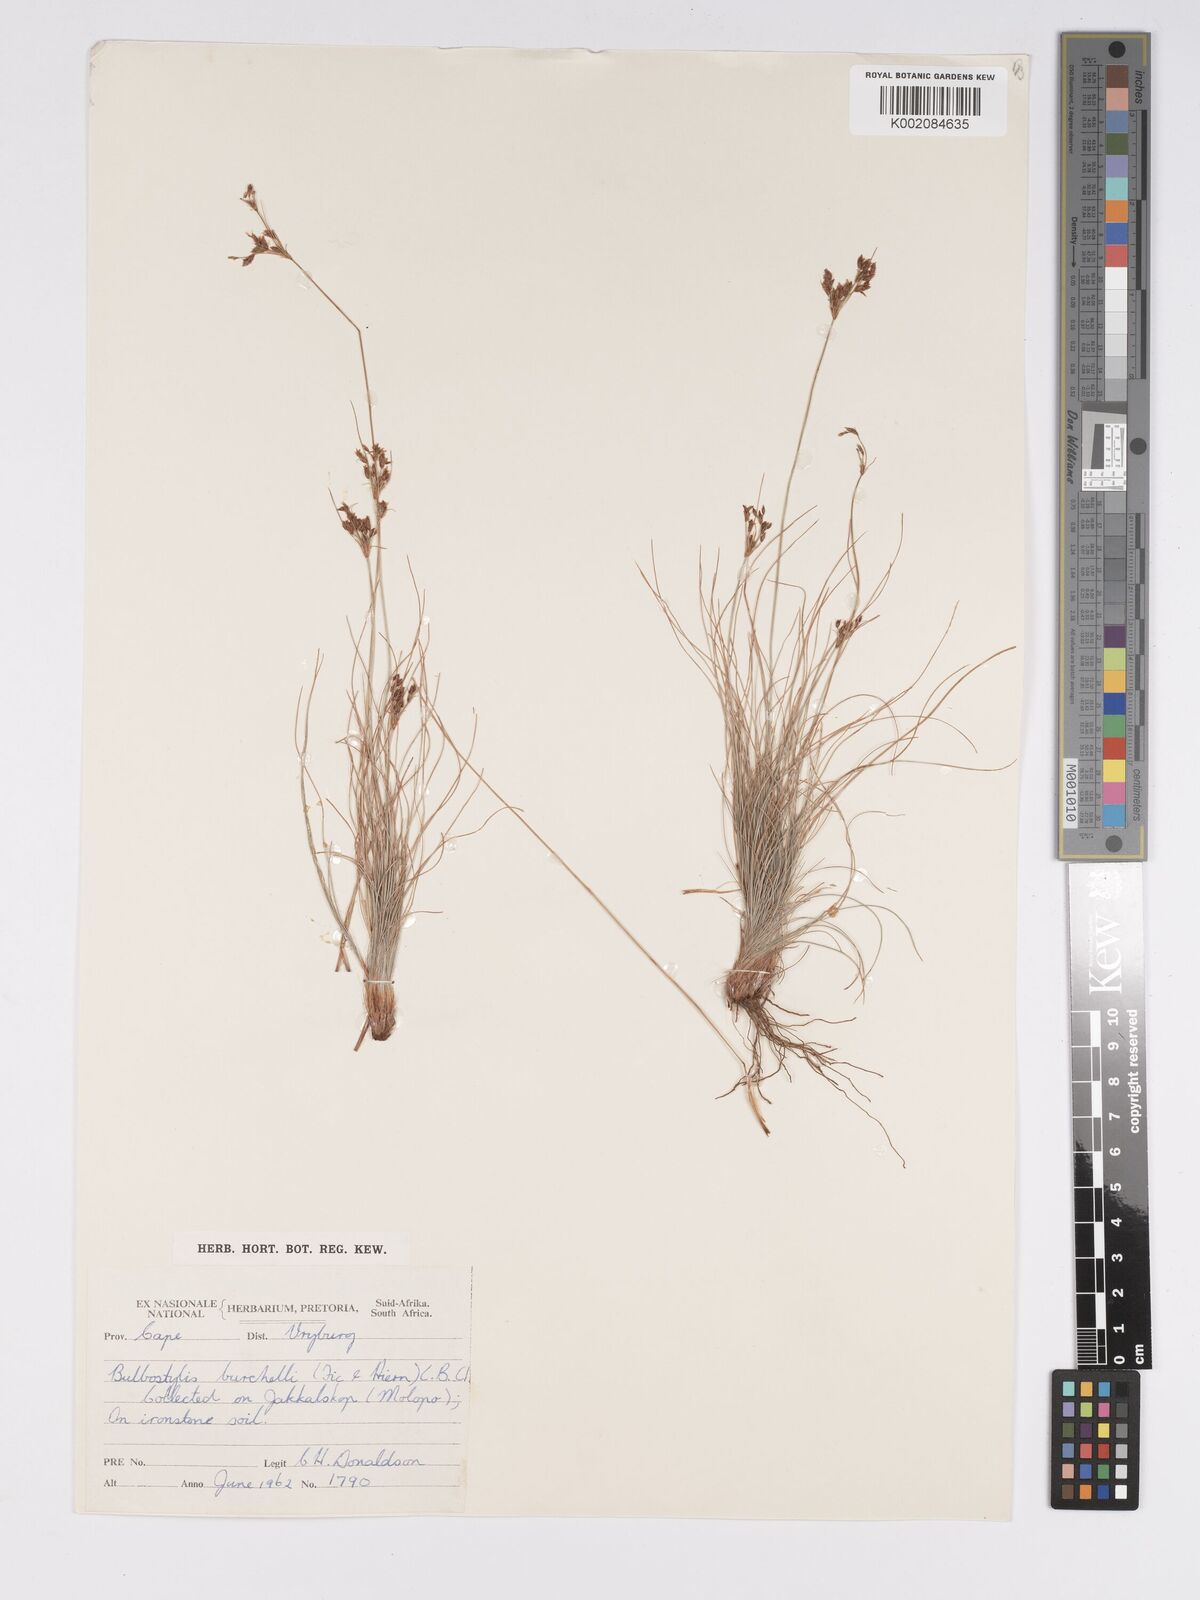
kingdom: Plantae
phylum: Tracheophyta
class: Liliopsida
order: Poales
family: Cyperaceae
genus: Bulbostylis
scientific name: Bulbostylis burchellii
